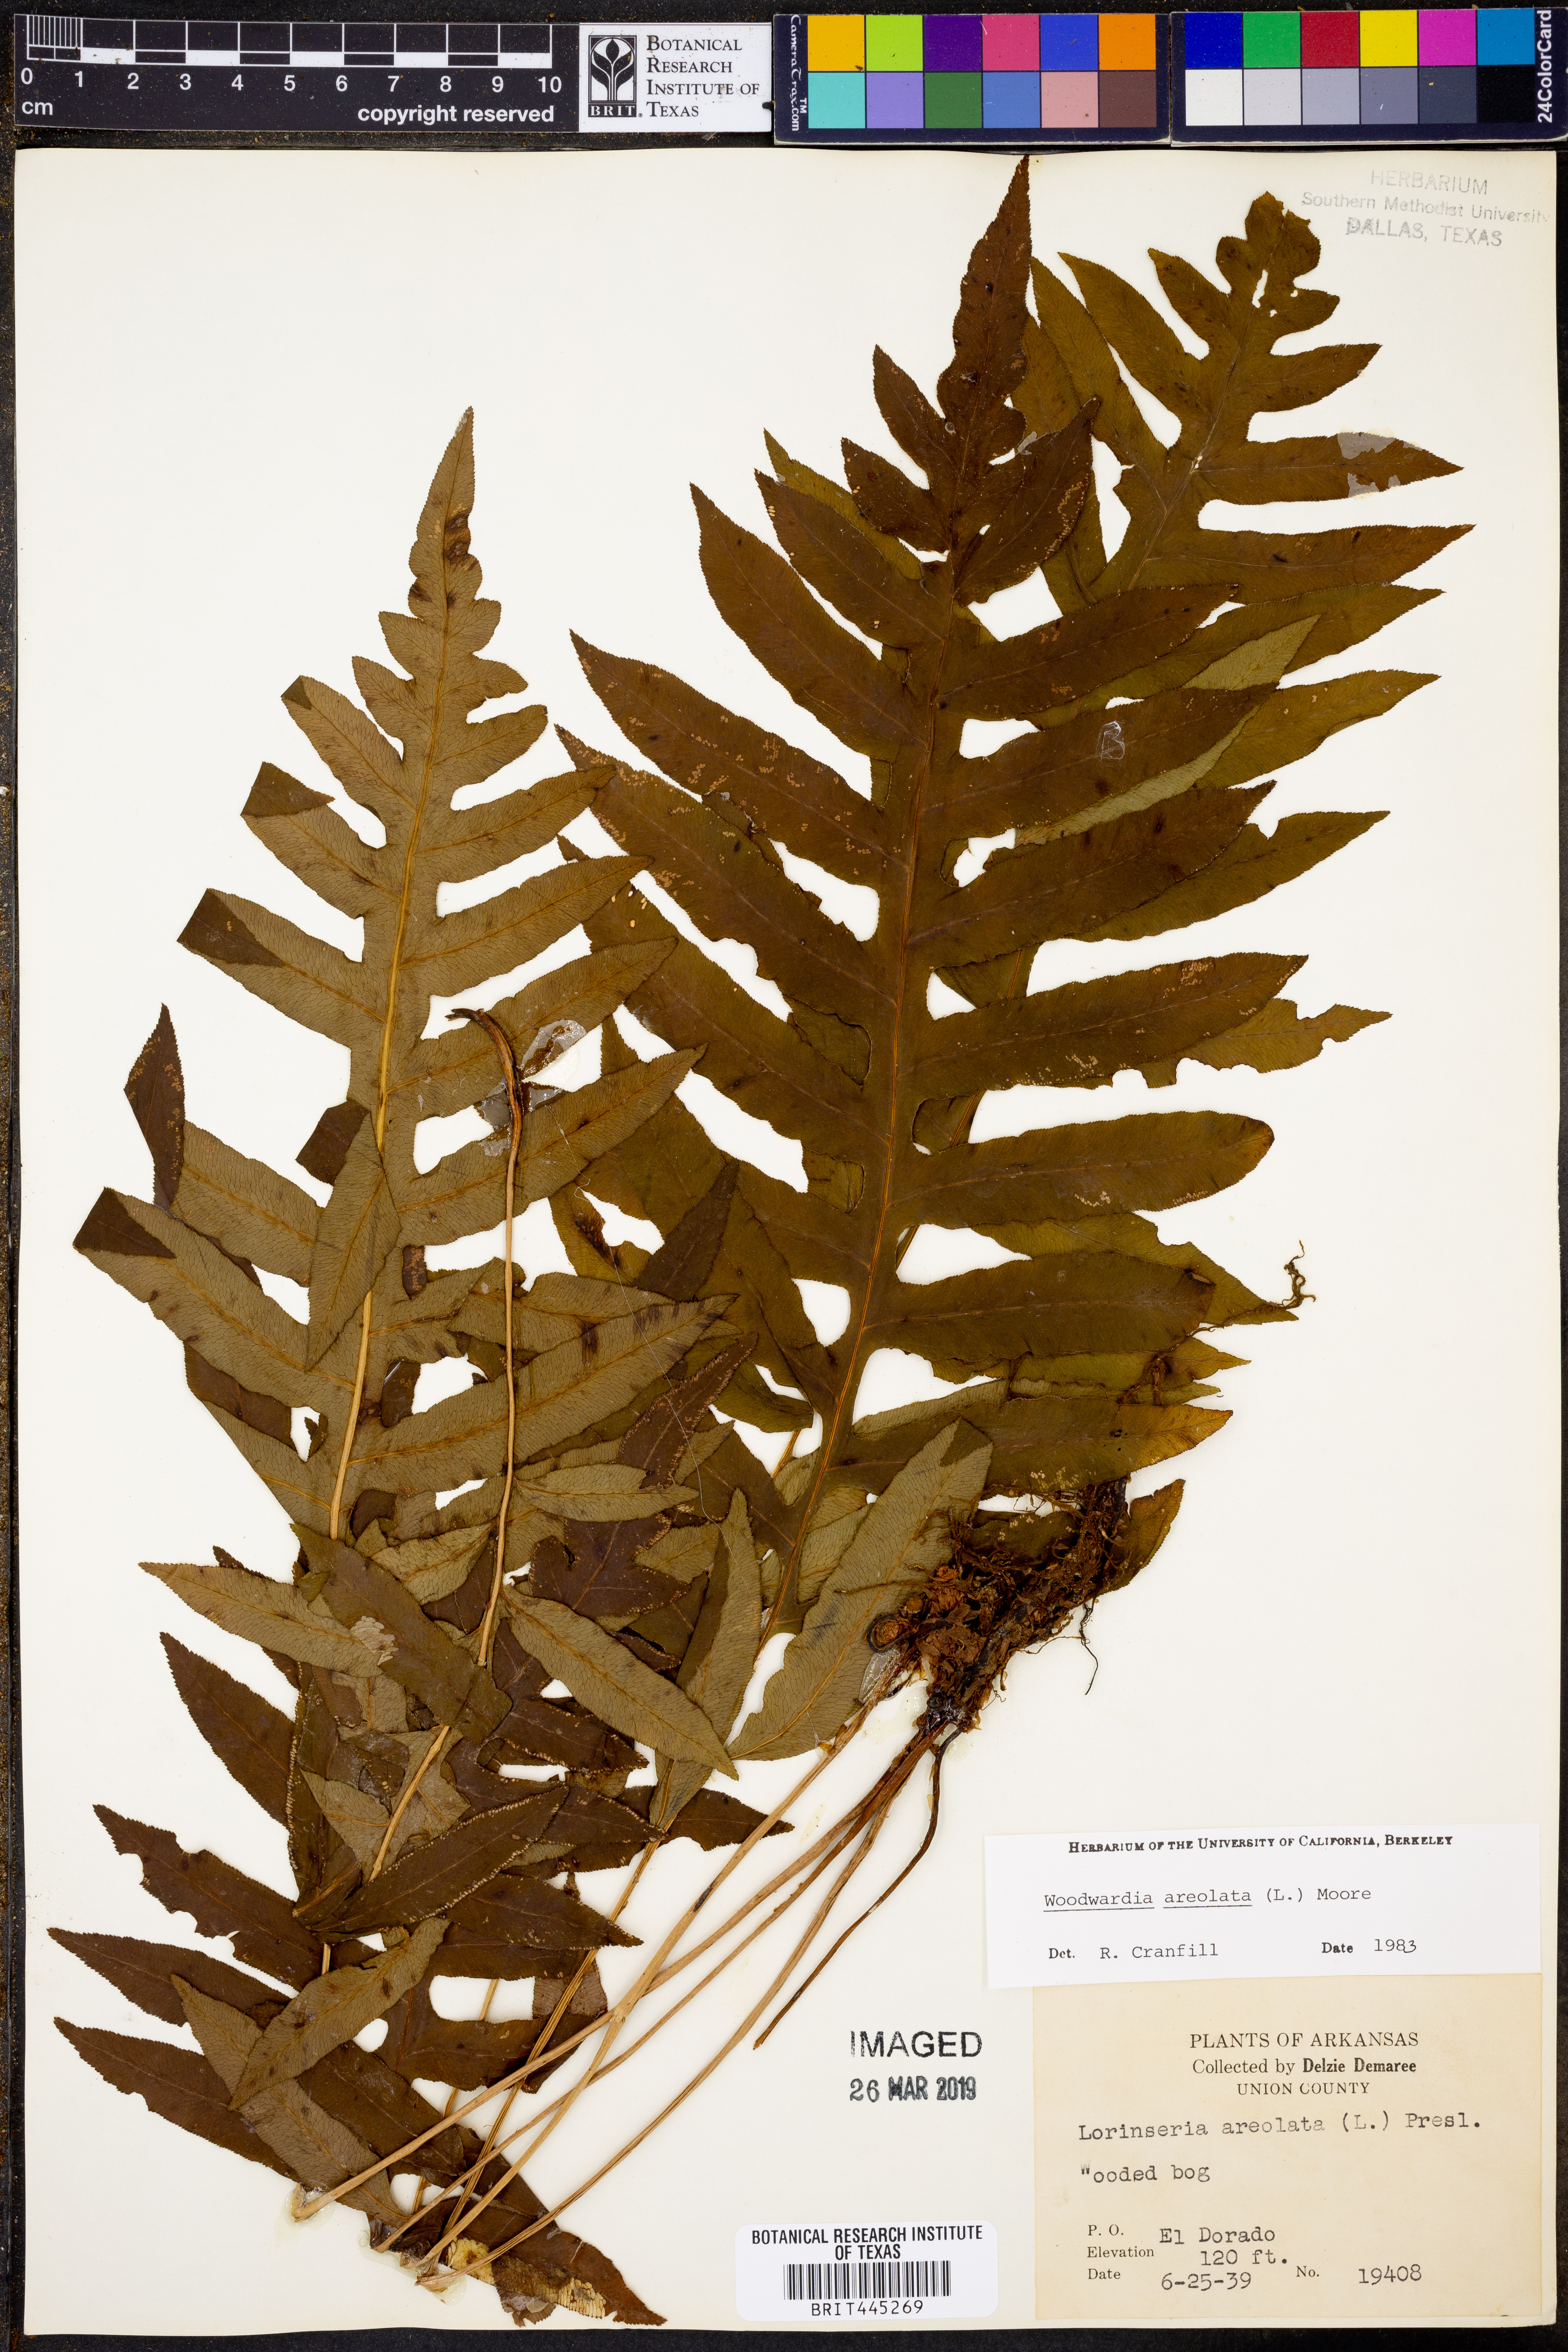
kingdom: Plantae
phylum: Tracheophyta
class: Polypodiopsida
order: Polypodiales
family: Blechnaceae
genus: Lorinseria
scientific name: Lorinseria areolata
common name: Dwarf chain fern
